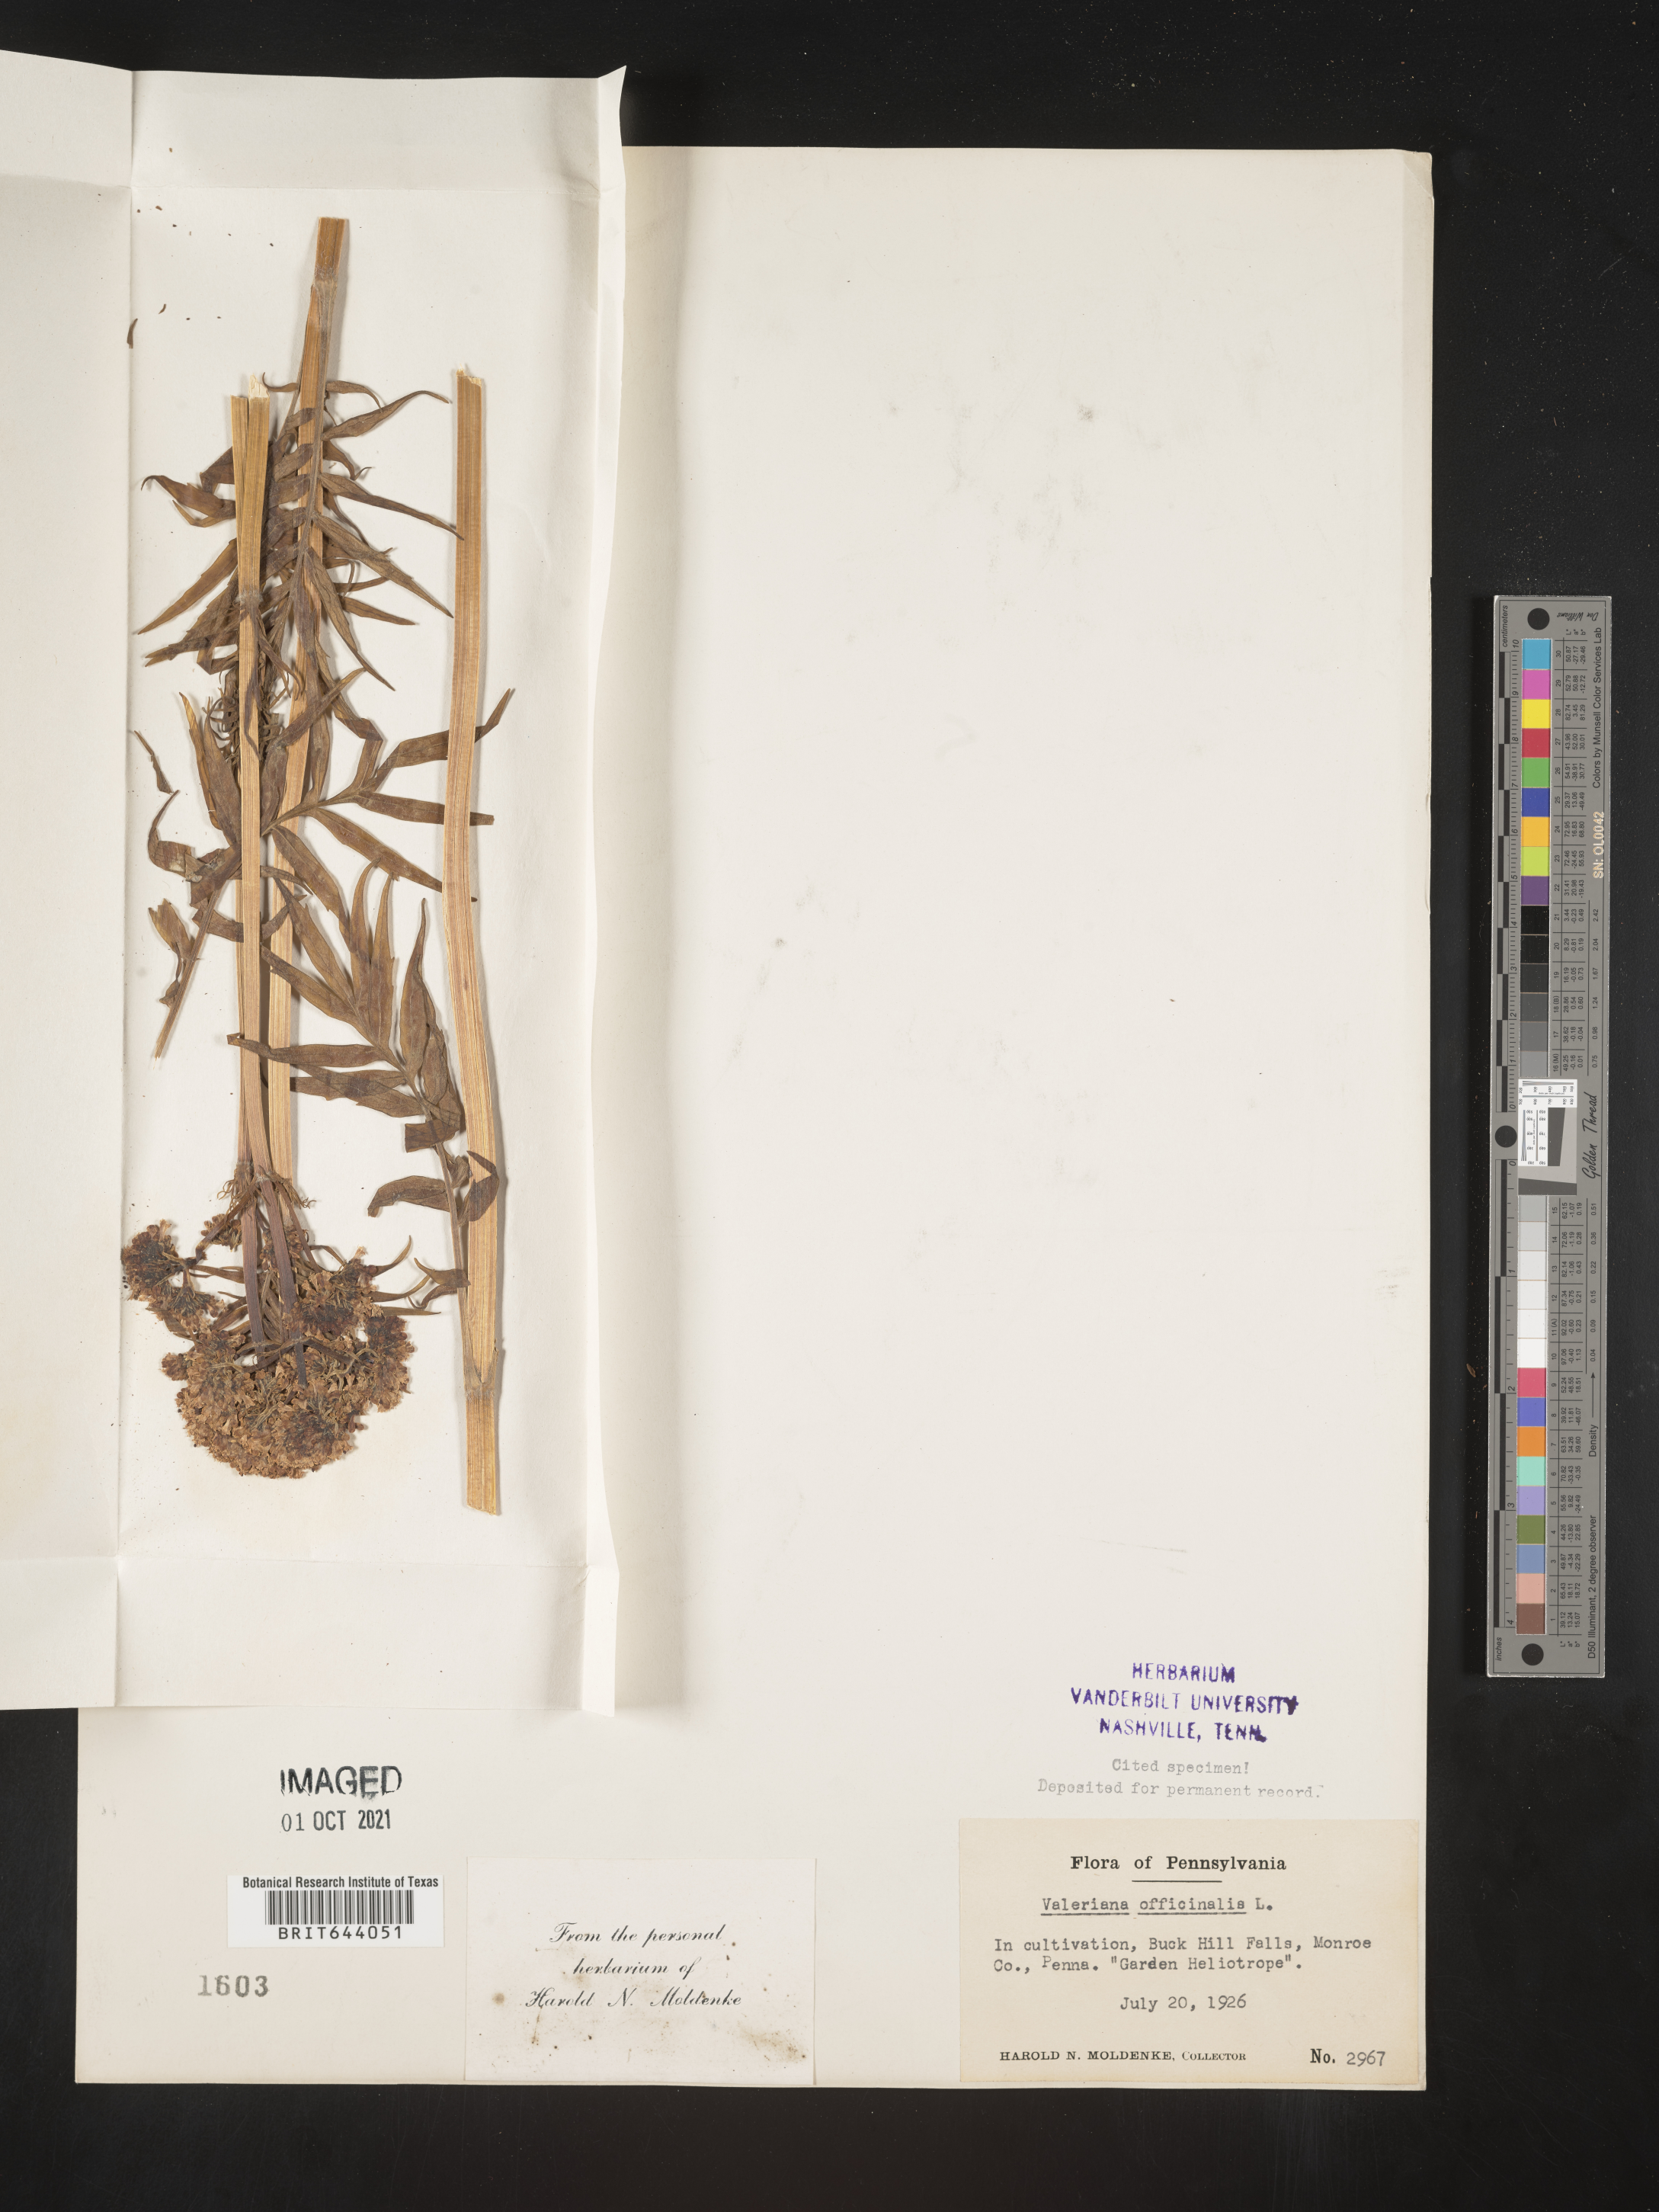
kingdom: Plantae
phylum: Tracheophyta
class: Magnoliopsida
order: Dipsacales
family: Caprifoliaceae
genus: Valeriana
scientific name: Valeriana officinalis
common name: Common valerian
